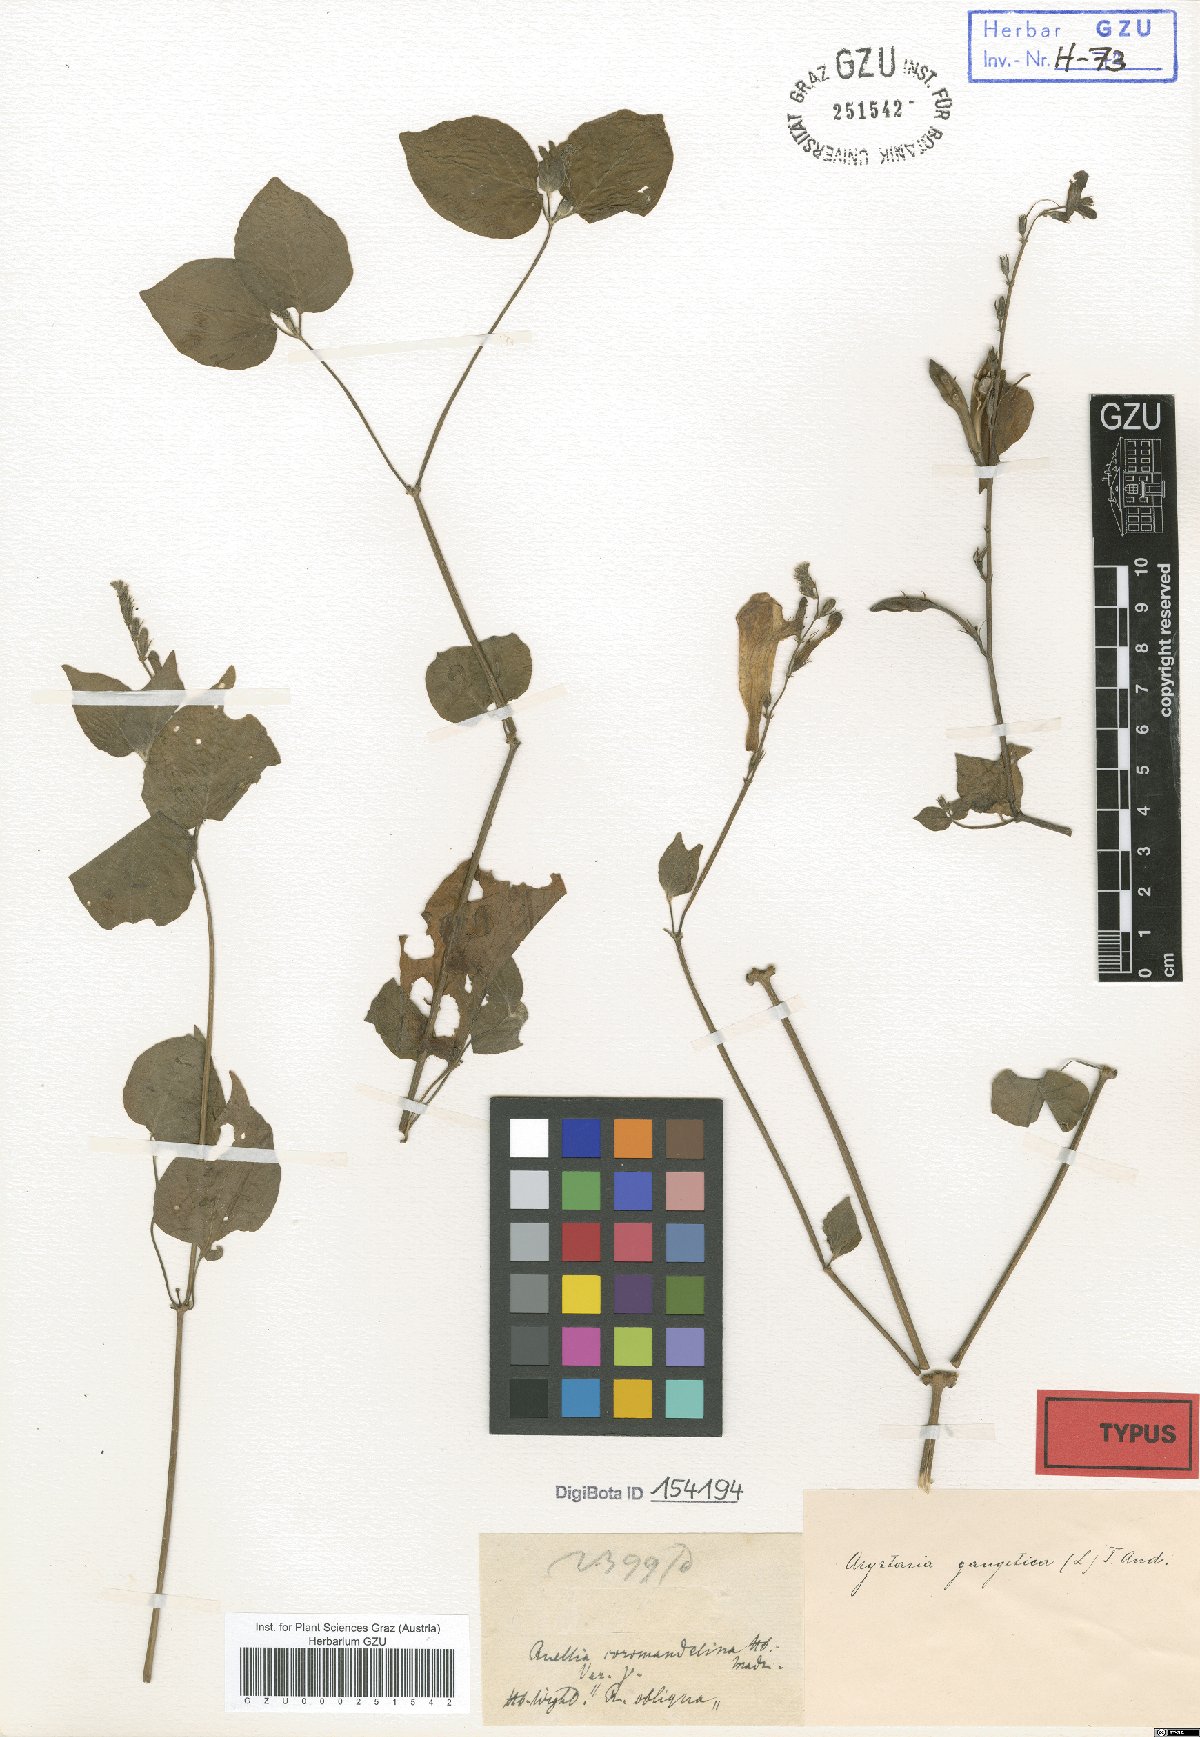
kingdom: Plantae
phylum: Tracheophyta
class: Magnoliopsida
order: Lamiales
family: Acanthaceae
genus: Asystasia
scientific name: Asystasia gangetica
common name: Chinese violet
